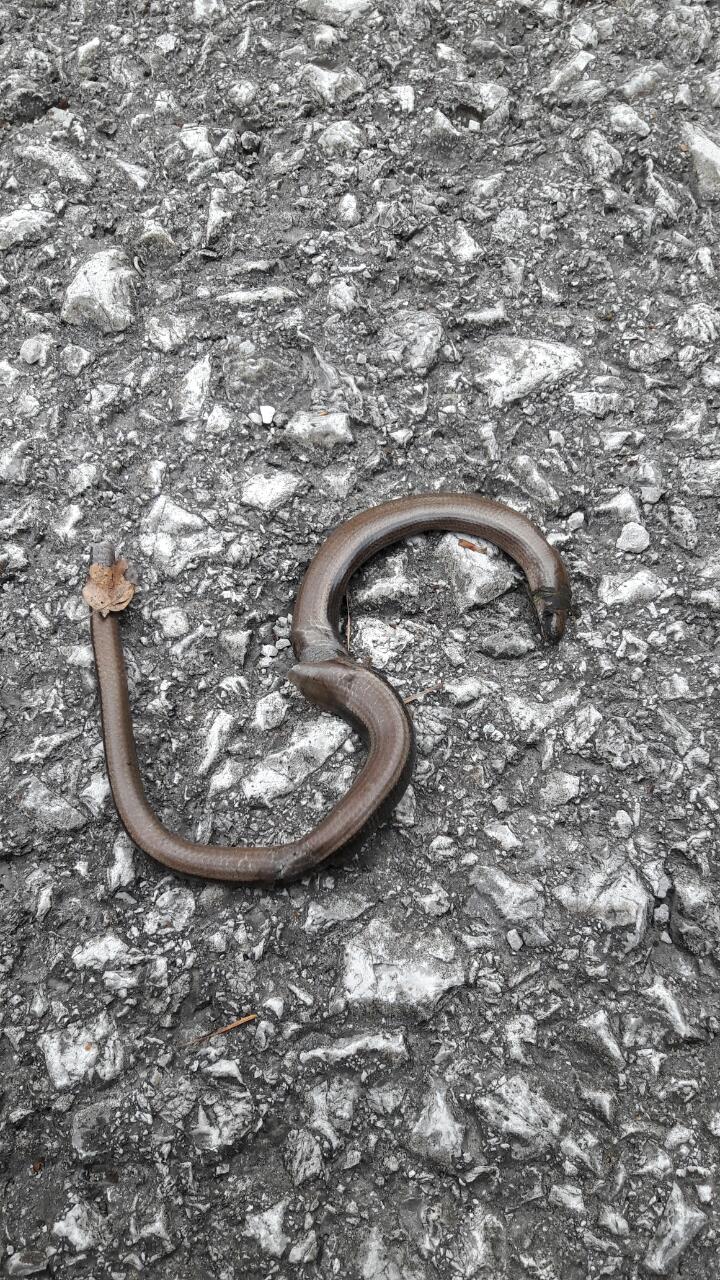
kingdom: Animalia
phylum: Chordata
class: Squamata
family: Anguidae
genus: Anguis
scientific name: Anguis fragilis
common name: Slow worm
